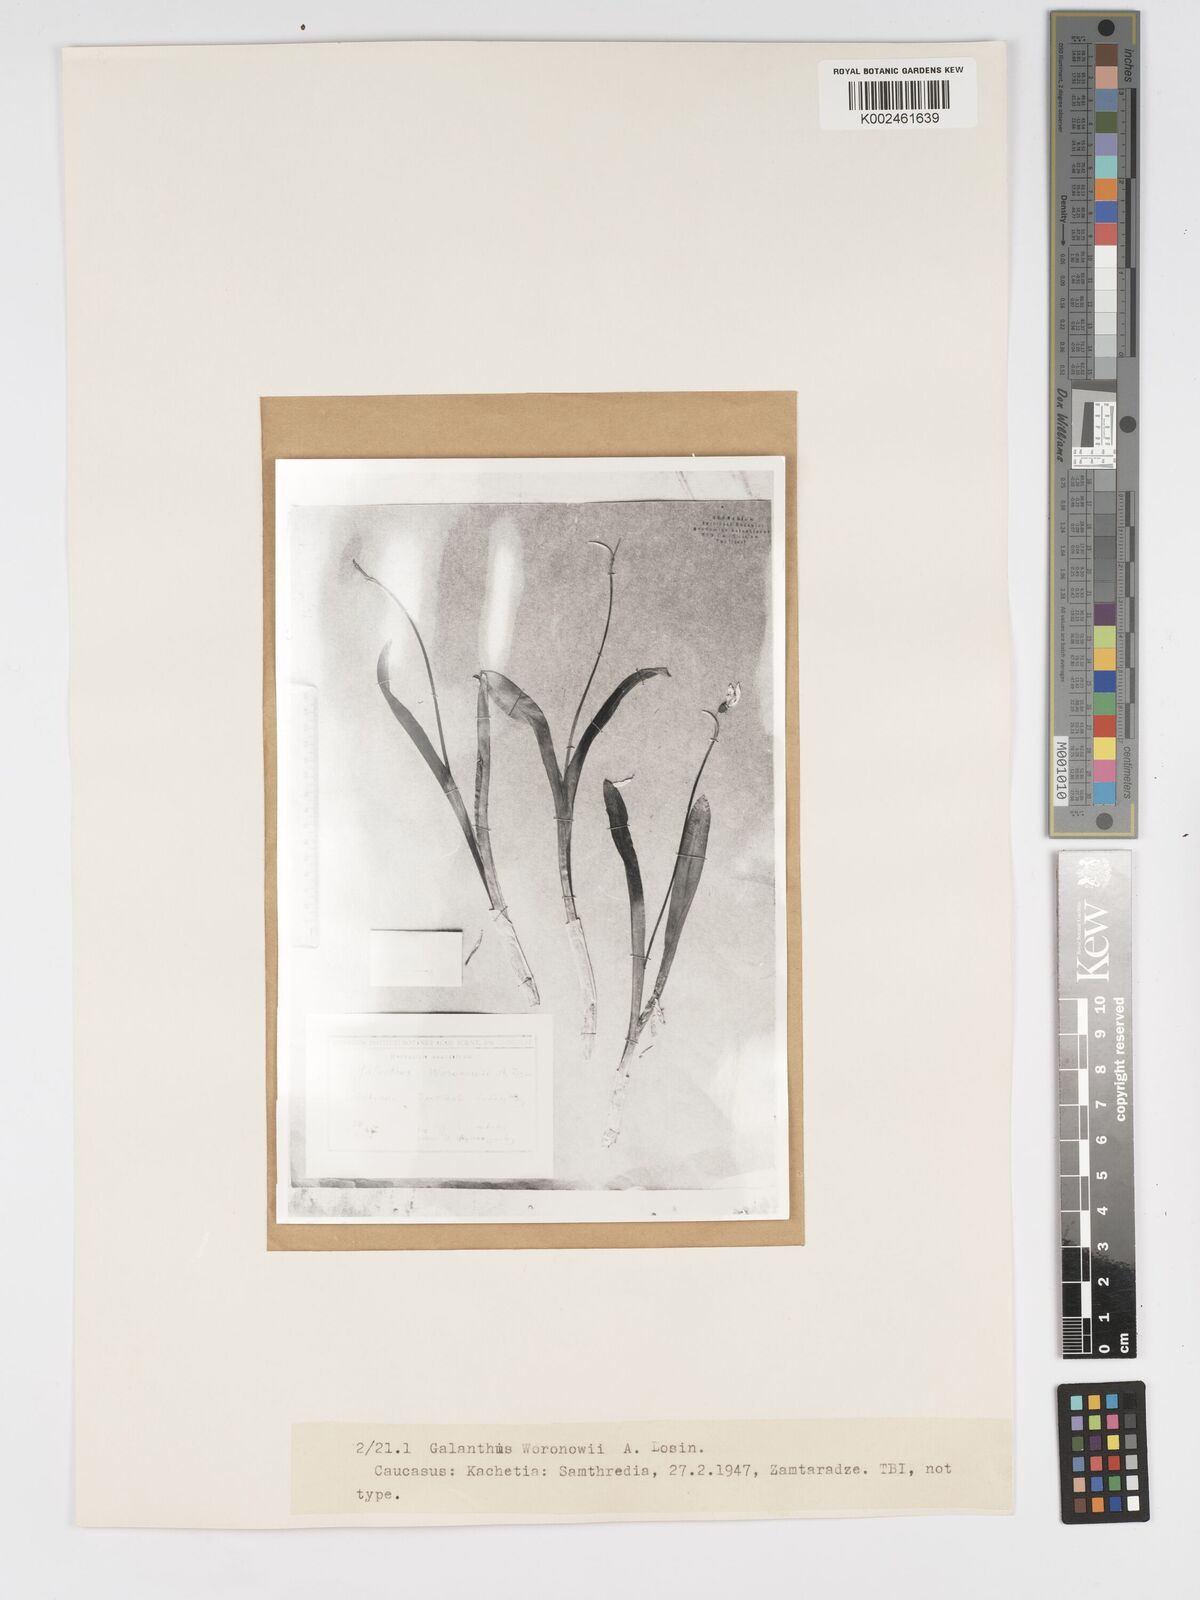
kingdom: Plantae
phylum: Tracheophyta
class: Liliopsida
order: Asparagales
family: Amaryllidaceae
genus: Galanthus
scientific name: Galanthus woronowii
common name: Green snowdrop
